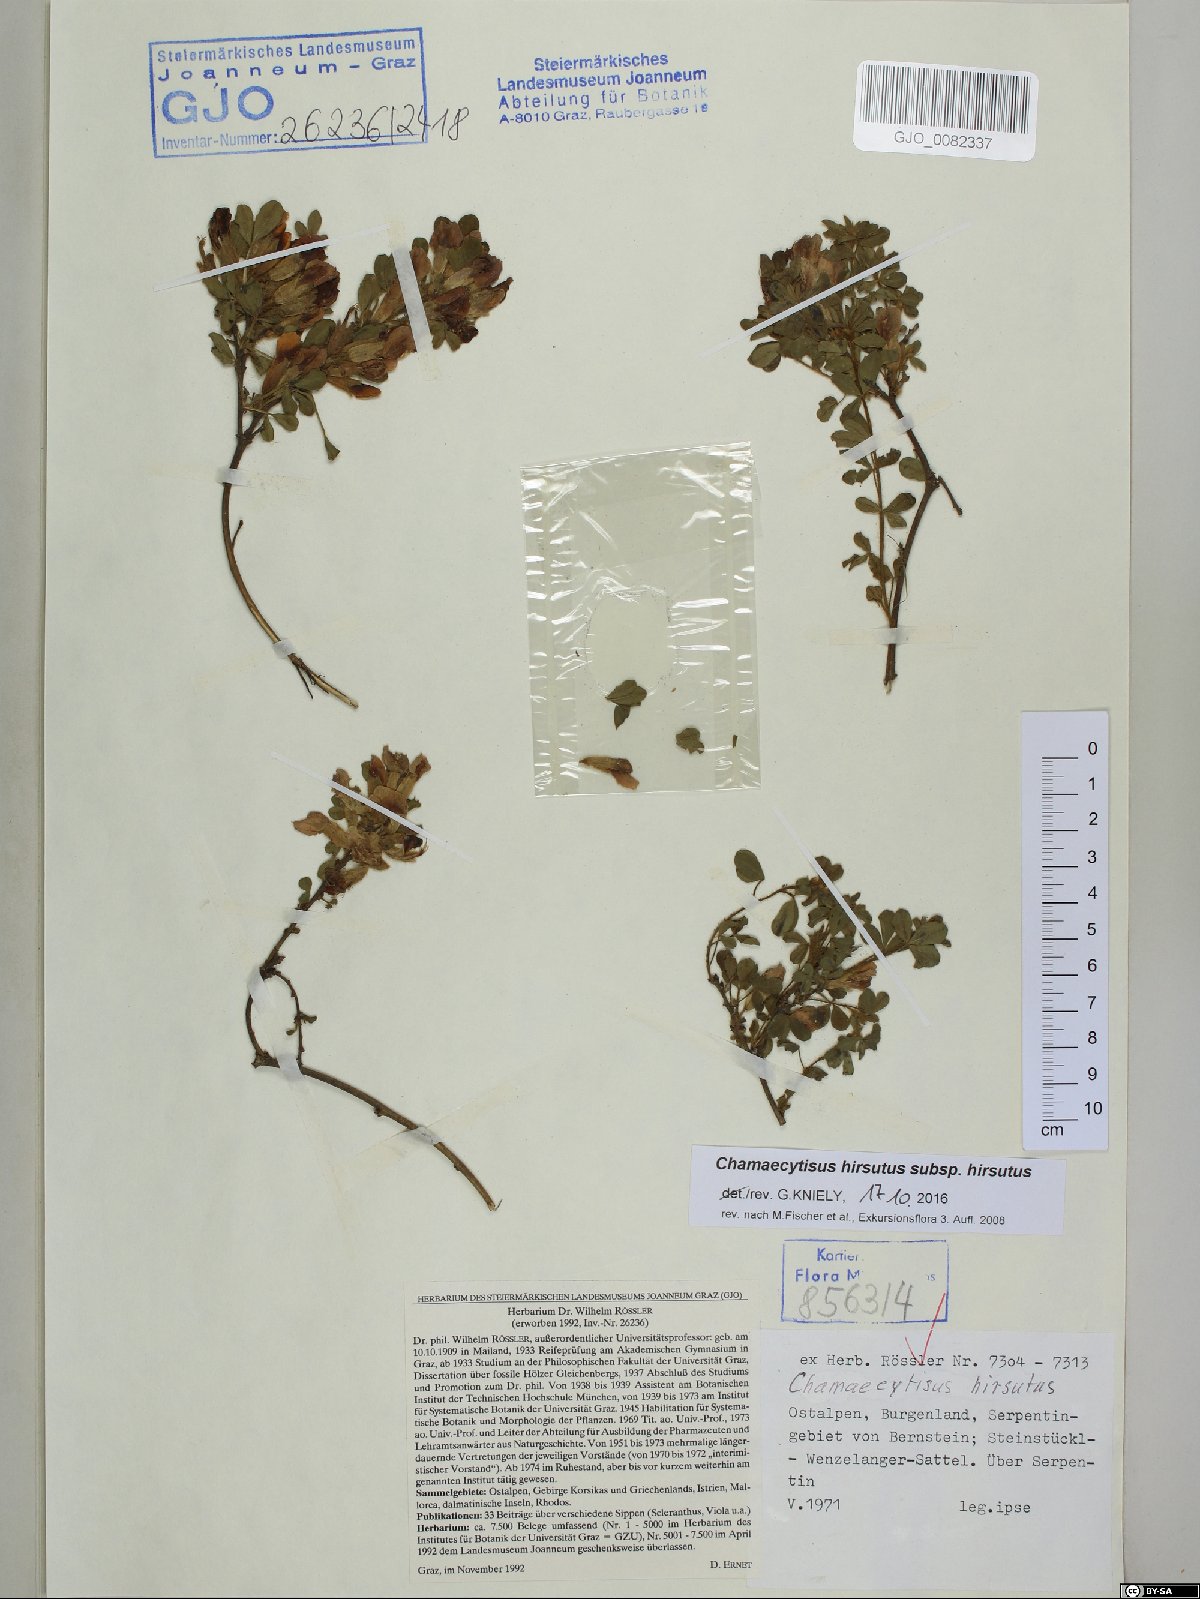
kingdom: Plantae
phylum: Tracheophyta
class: Magnoliopsida
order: Fabales
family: Fabaceae
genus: Chamaecytisus
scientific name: Chamaecytisus hirsutus
